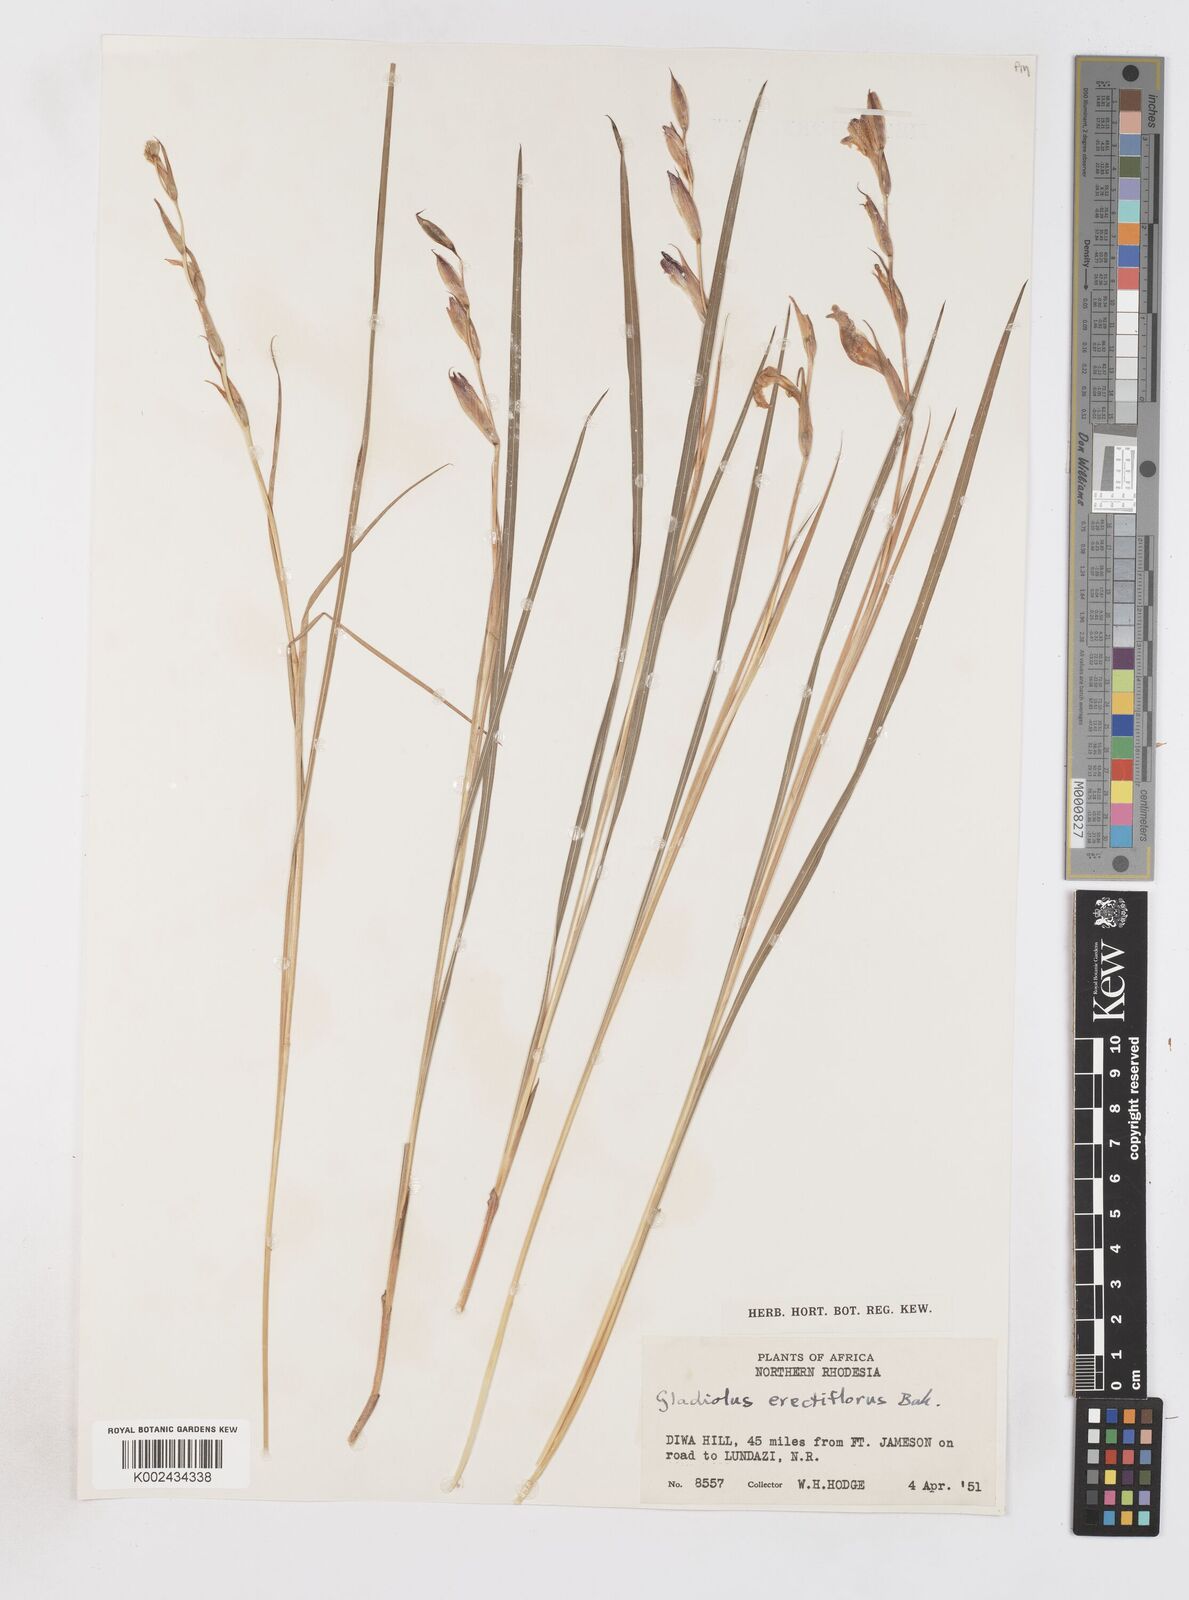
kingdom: Plantae
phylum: Tracheophyta
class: Liliopsida
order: Asparagales
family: Iridaceae
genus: Gladiolus
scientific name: Gladiolus erectiflorus
